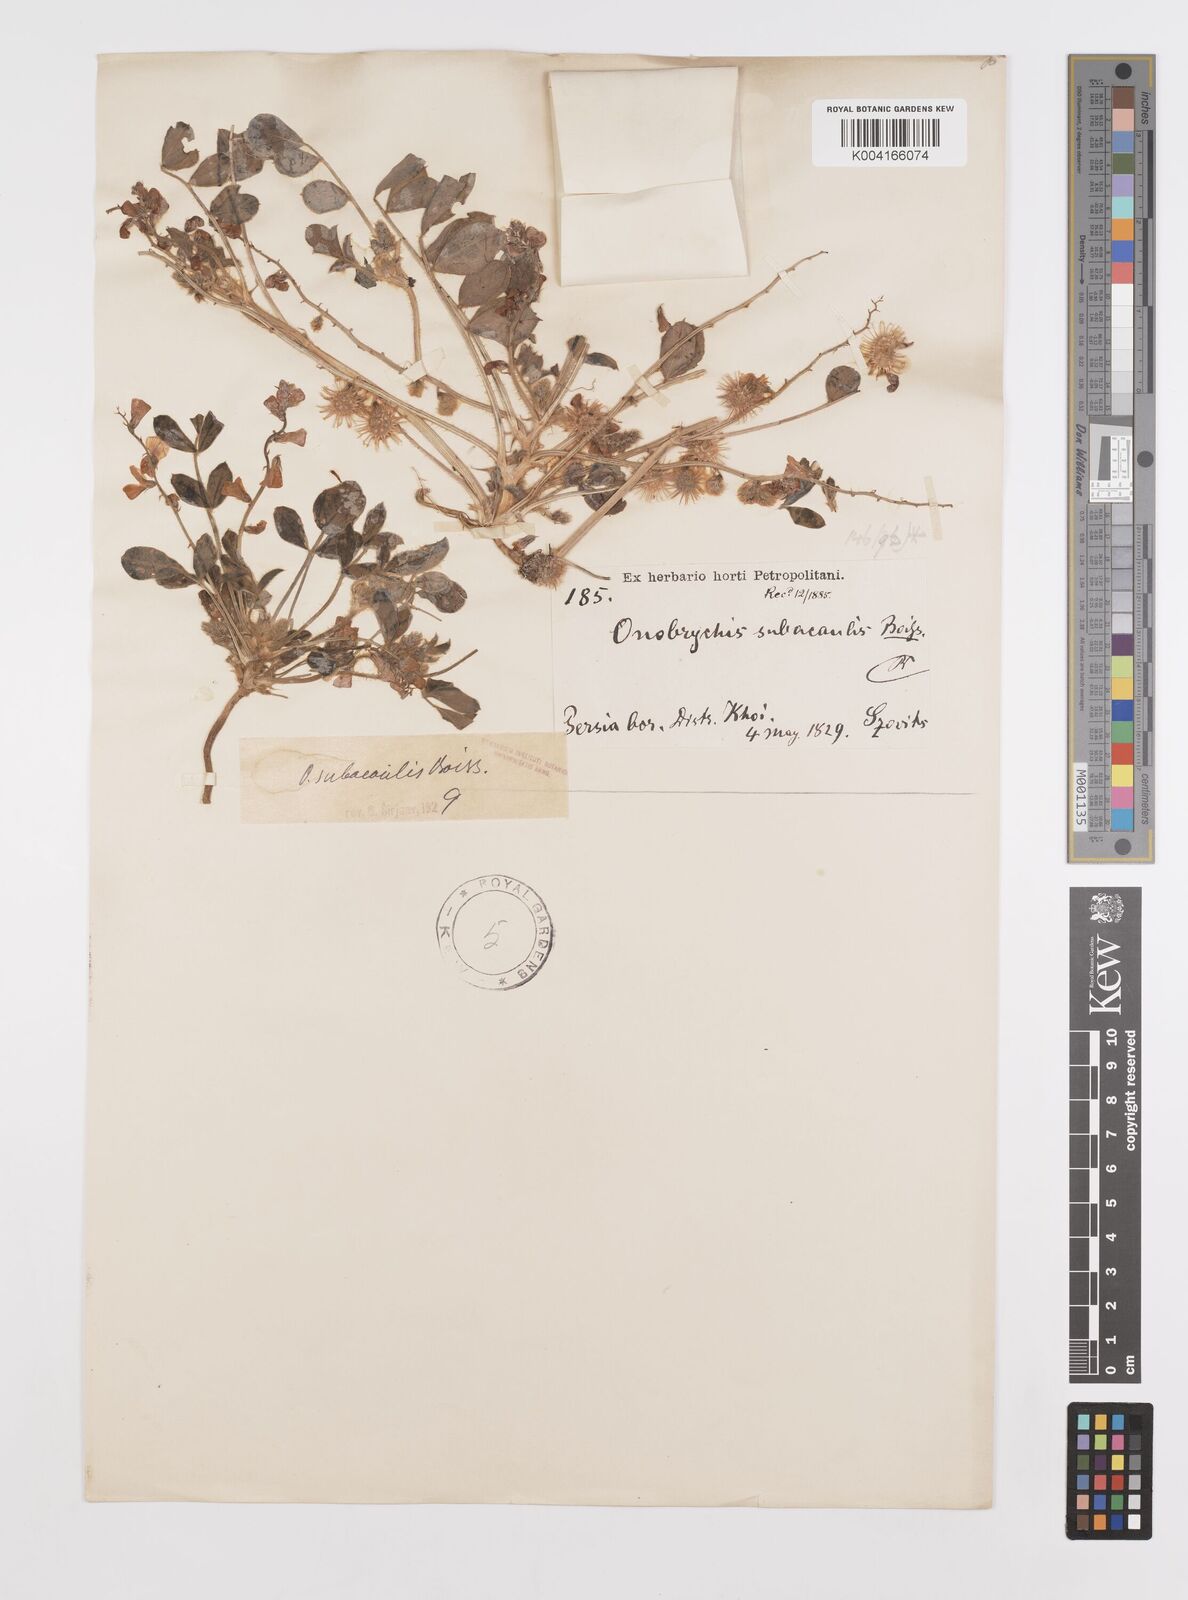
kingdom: Plantae
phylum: Tracheophyta
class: Magnoliopsida
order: Fabales
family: Fabaceae
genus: Onobrychis
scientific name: Onobrychis subacaulis
